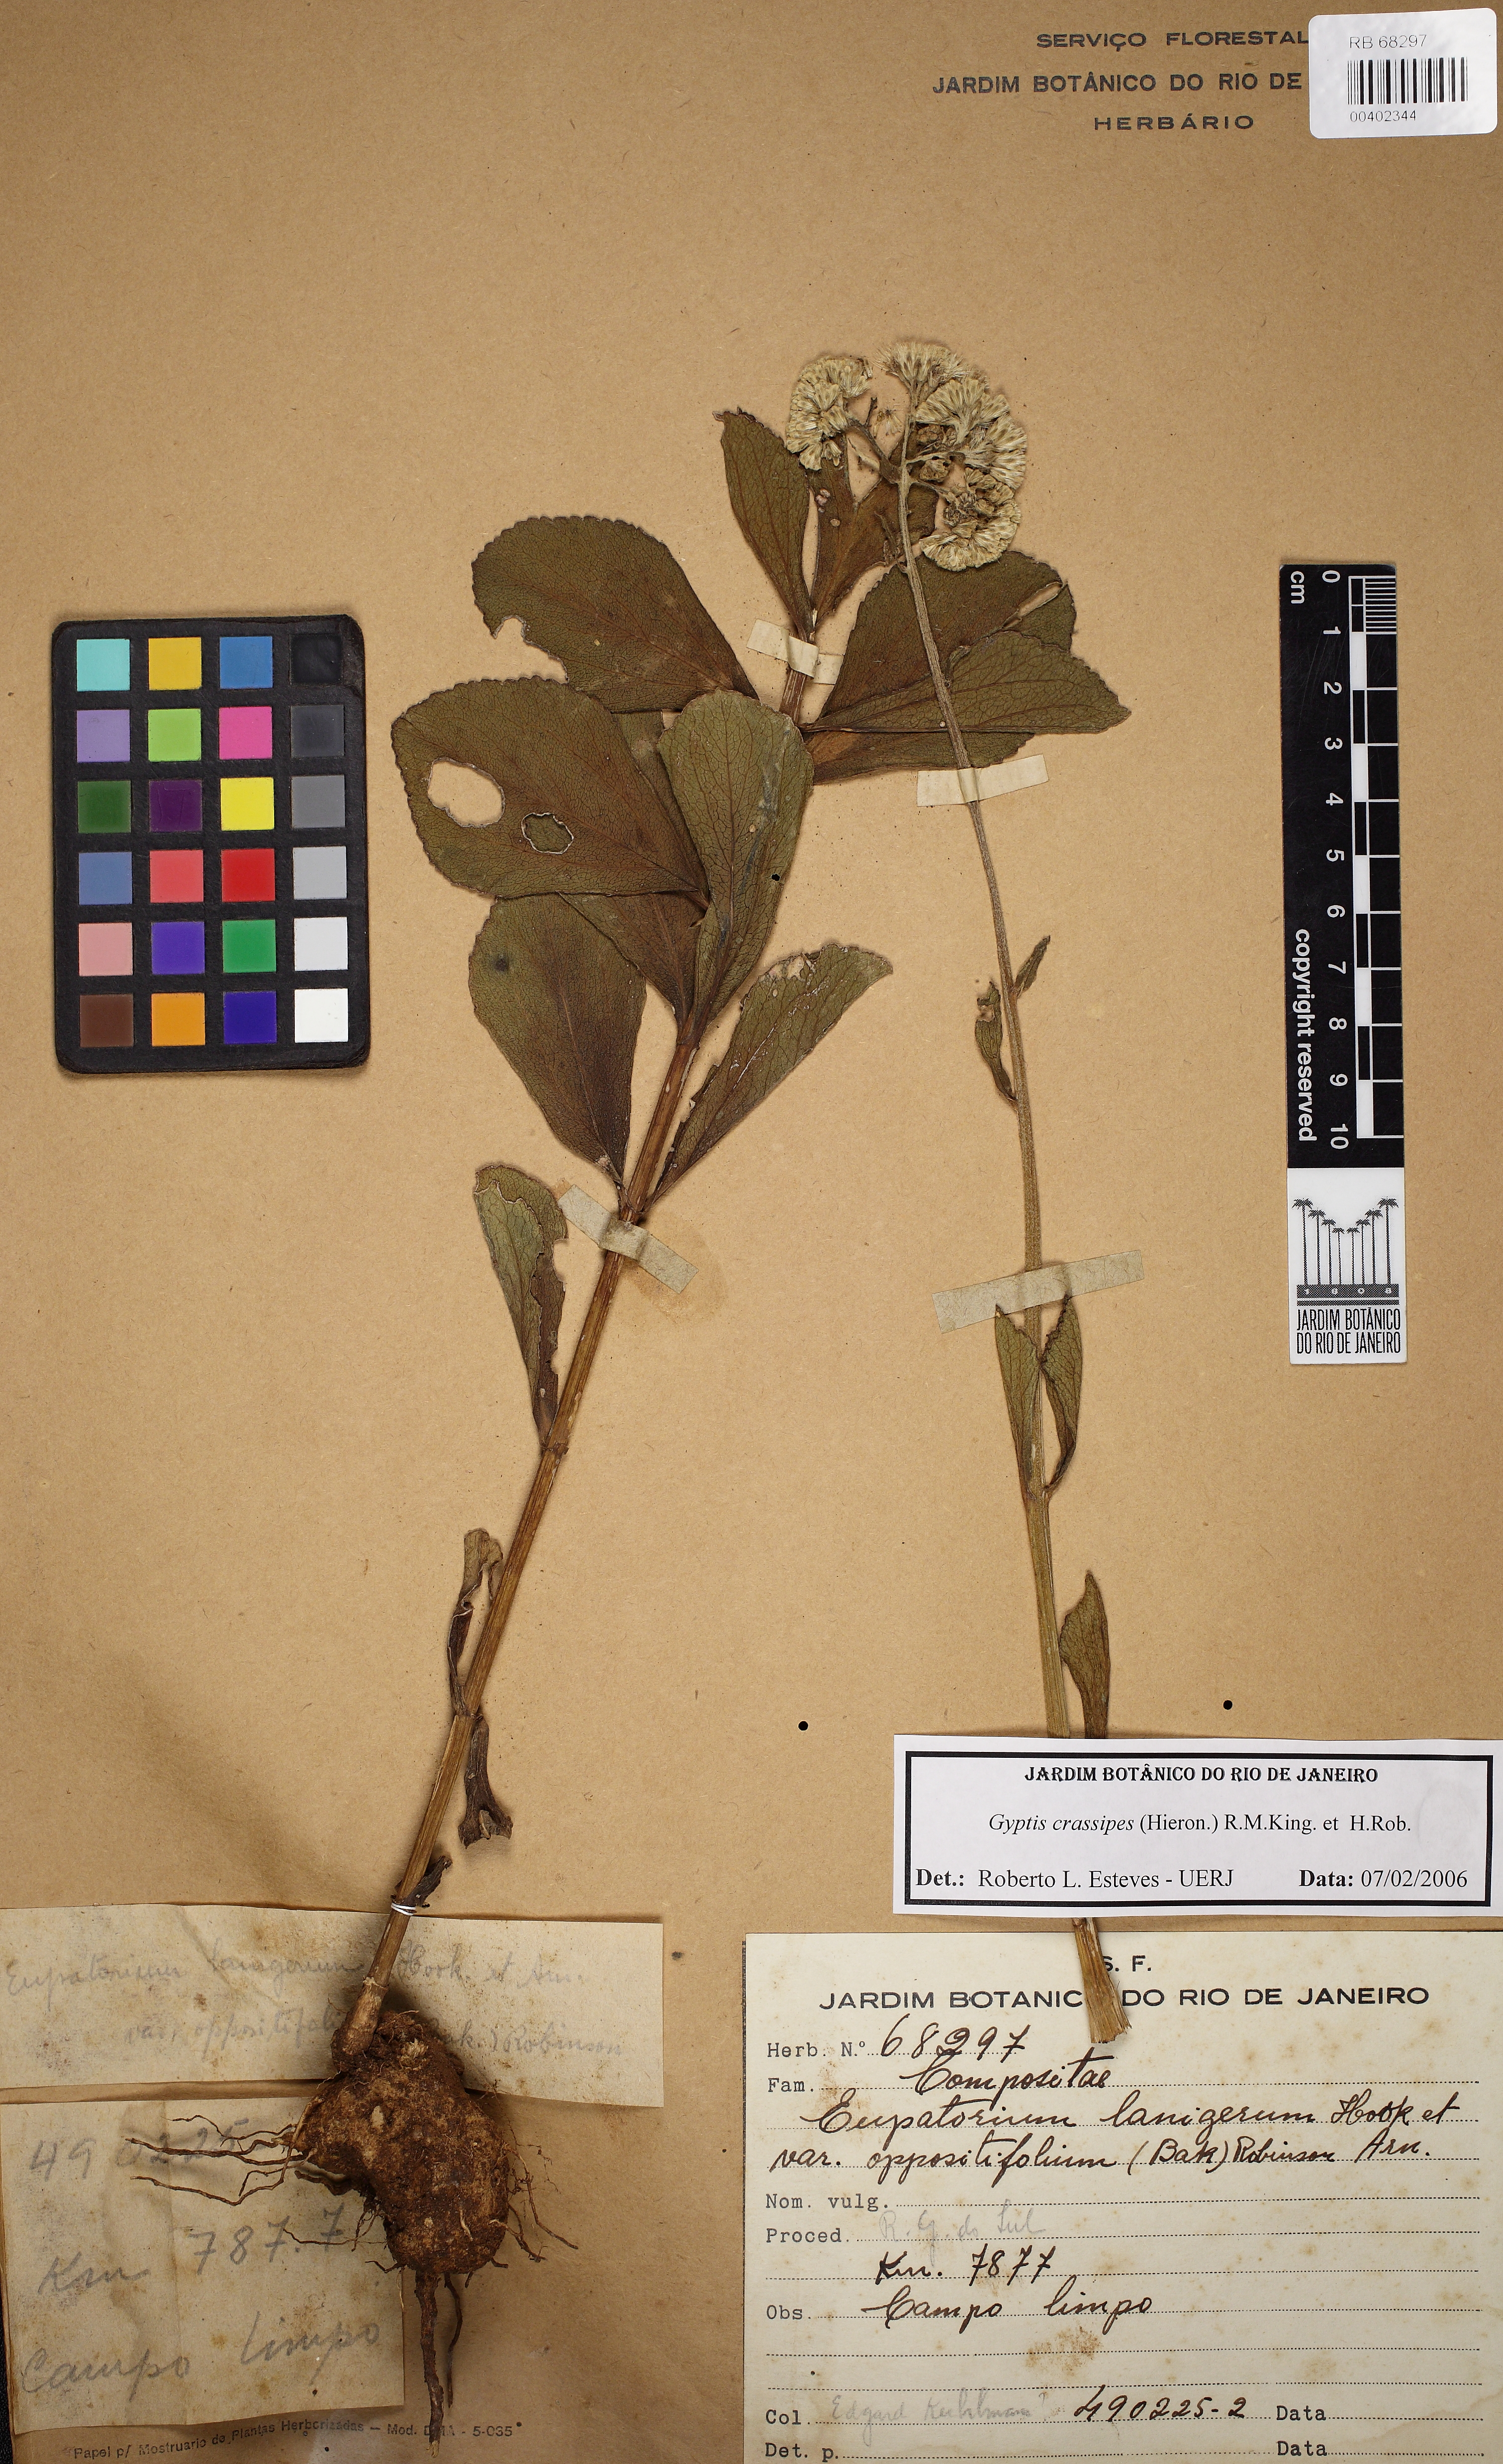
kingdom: Plantae
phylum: Tracheophyta
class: Magnoliopsida
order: Asterales
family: Asteraceae
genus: Gyptis
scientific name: Gyptis crassipes
